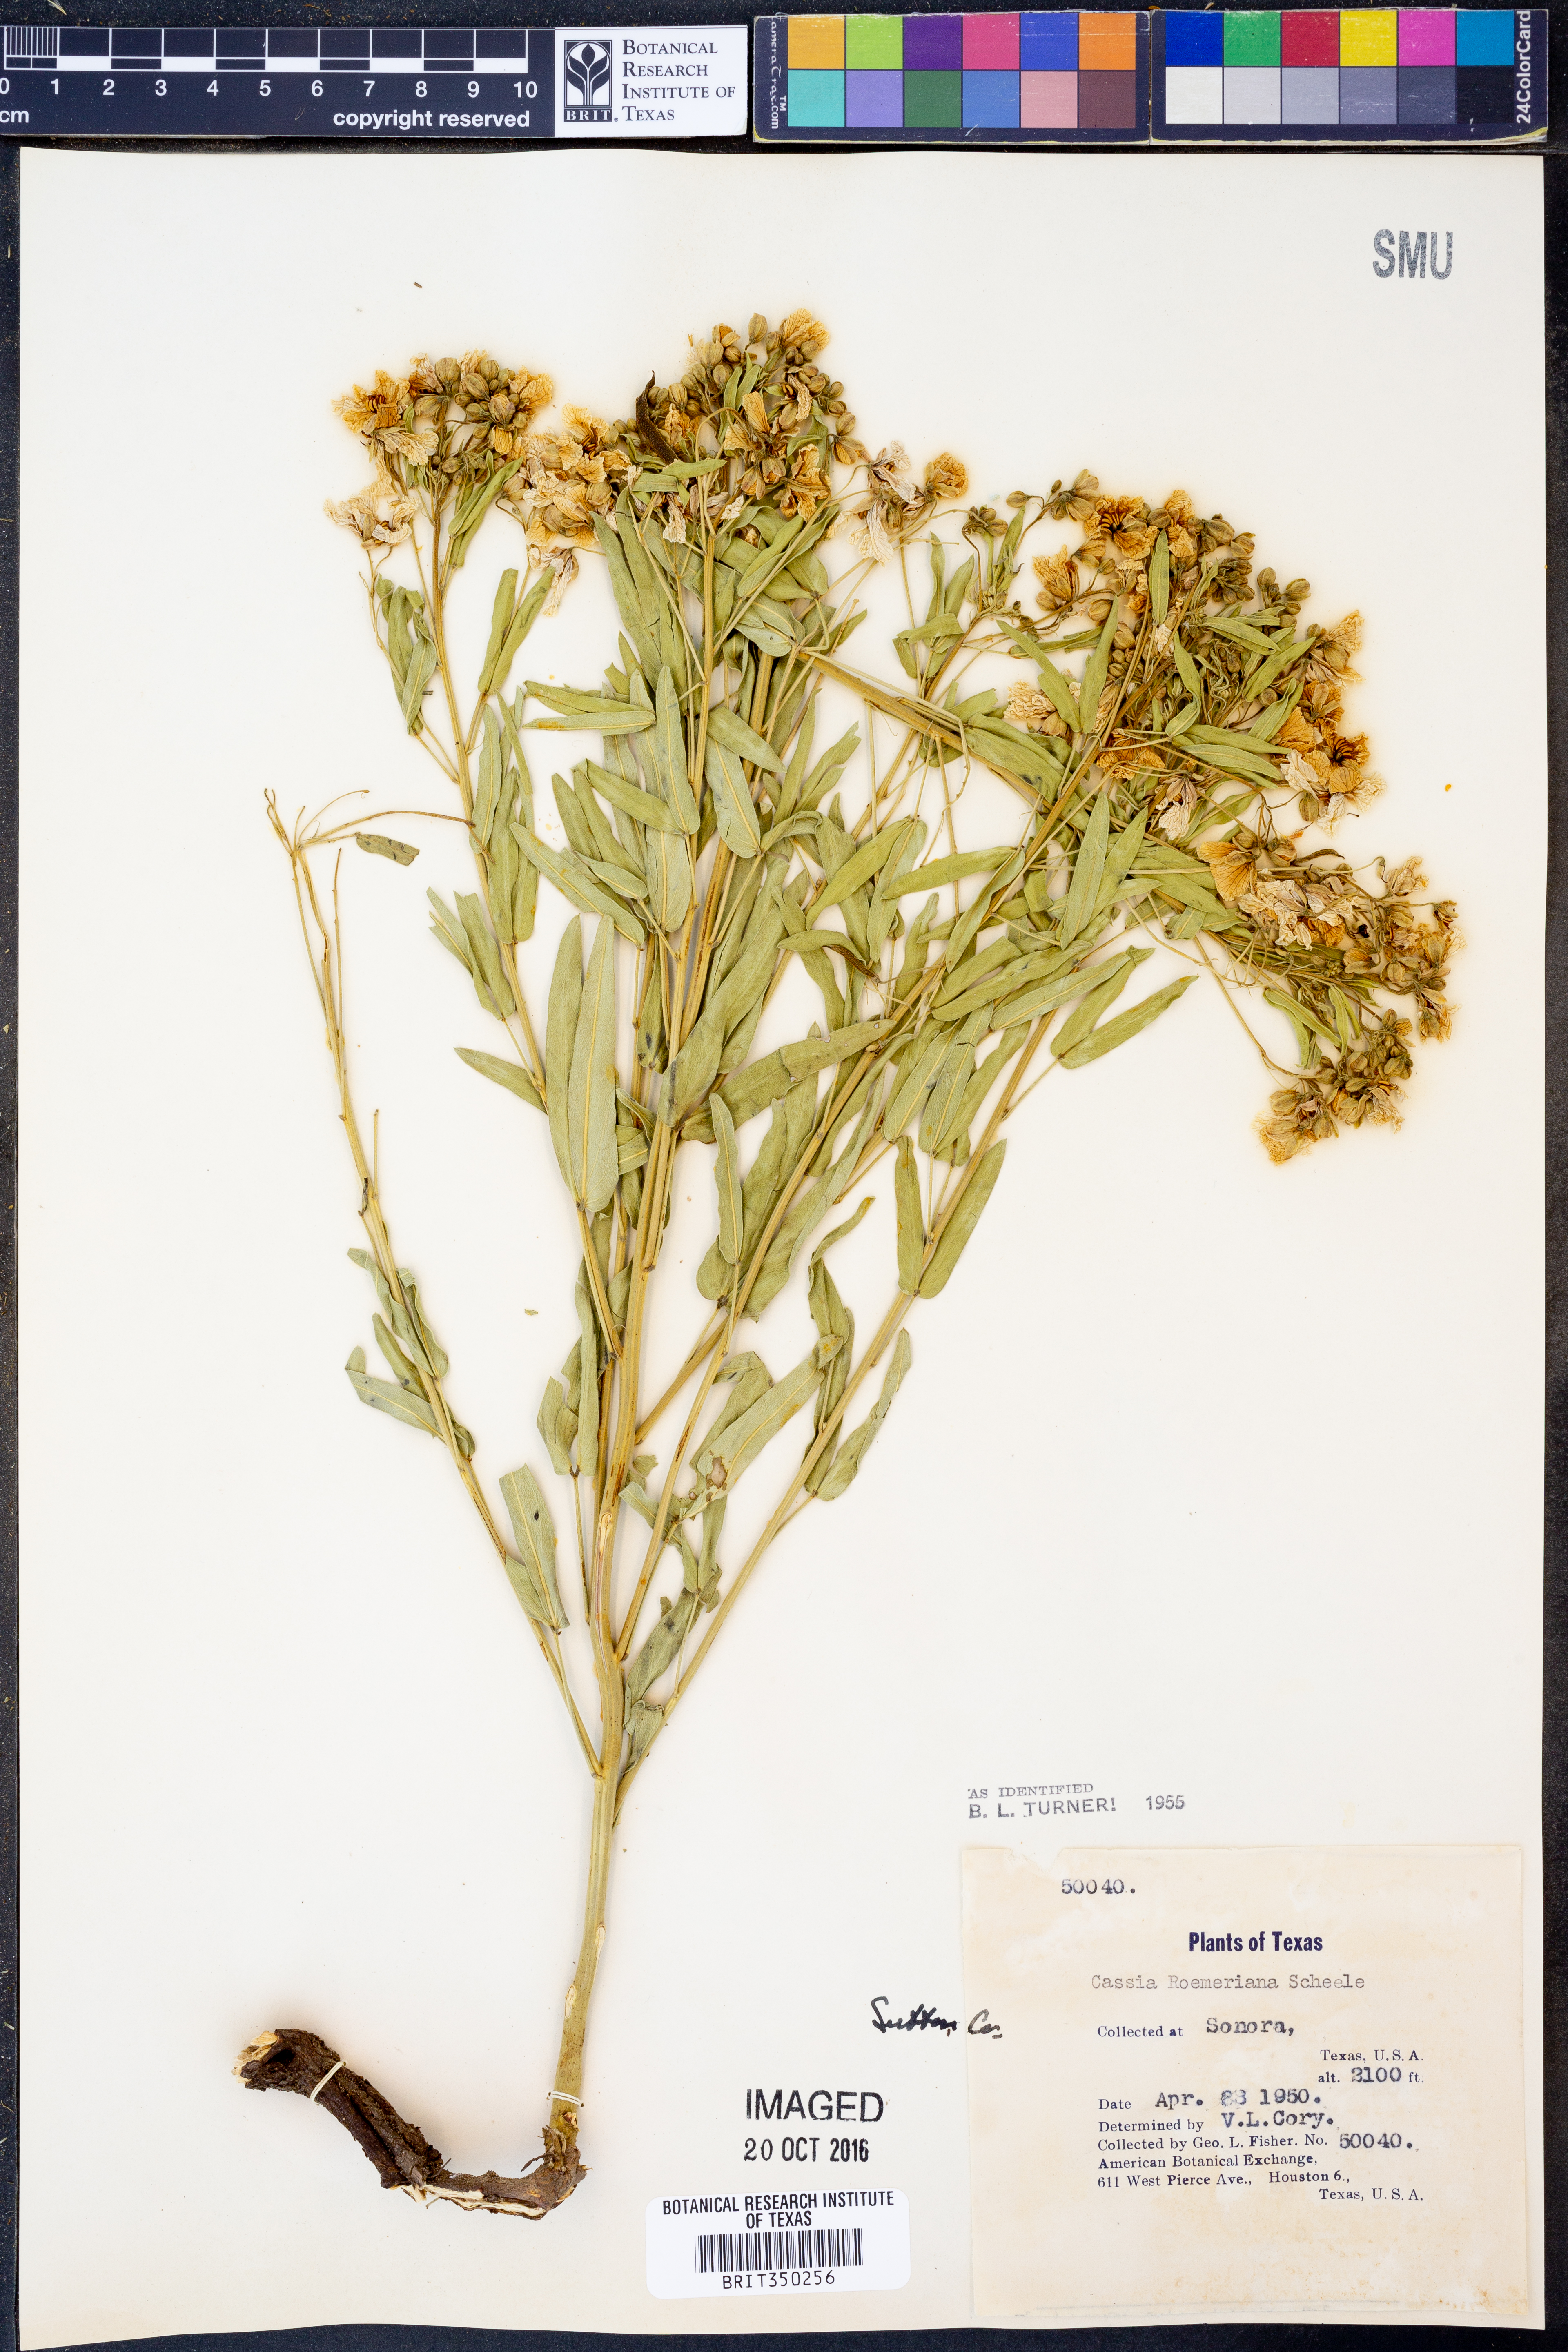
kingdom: Plantae
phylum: Tracheophyta
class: Magnoliopsida
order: Fabales
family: Fabaceae
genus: Senna
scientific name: Senna roemeriana
